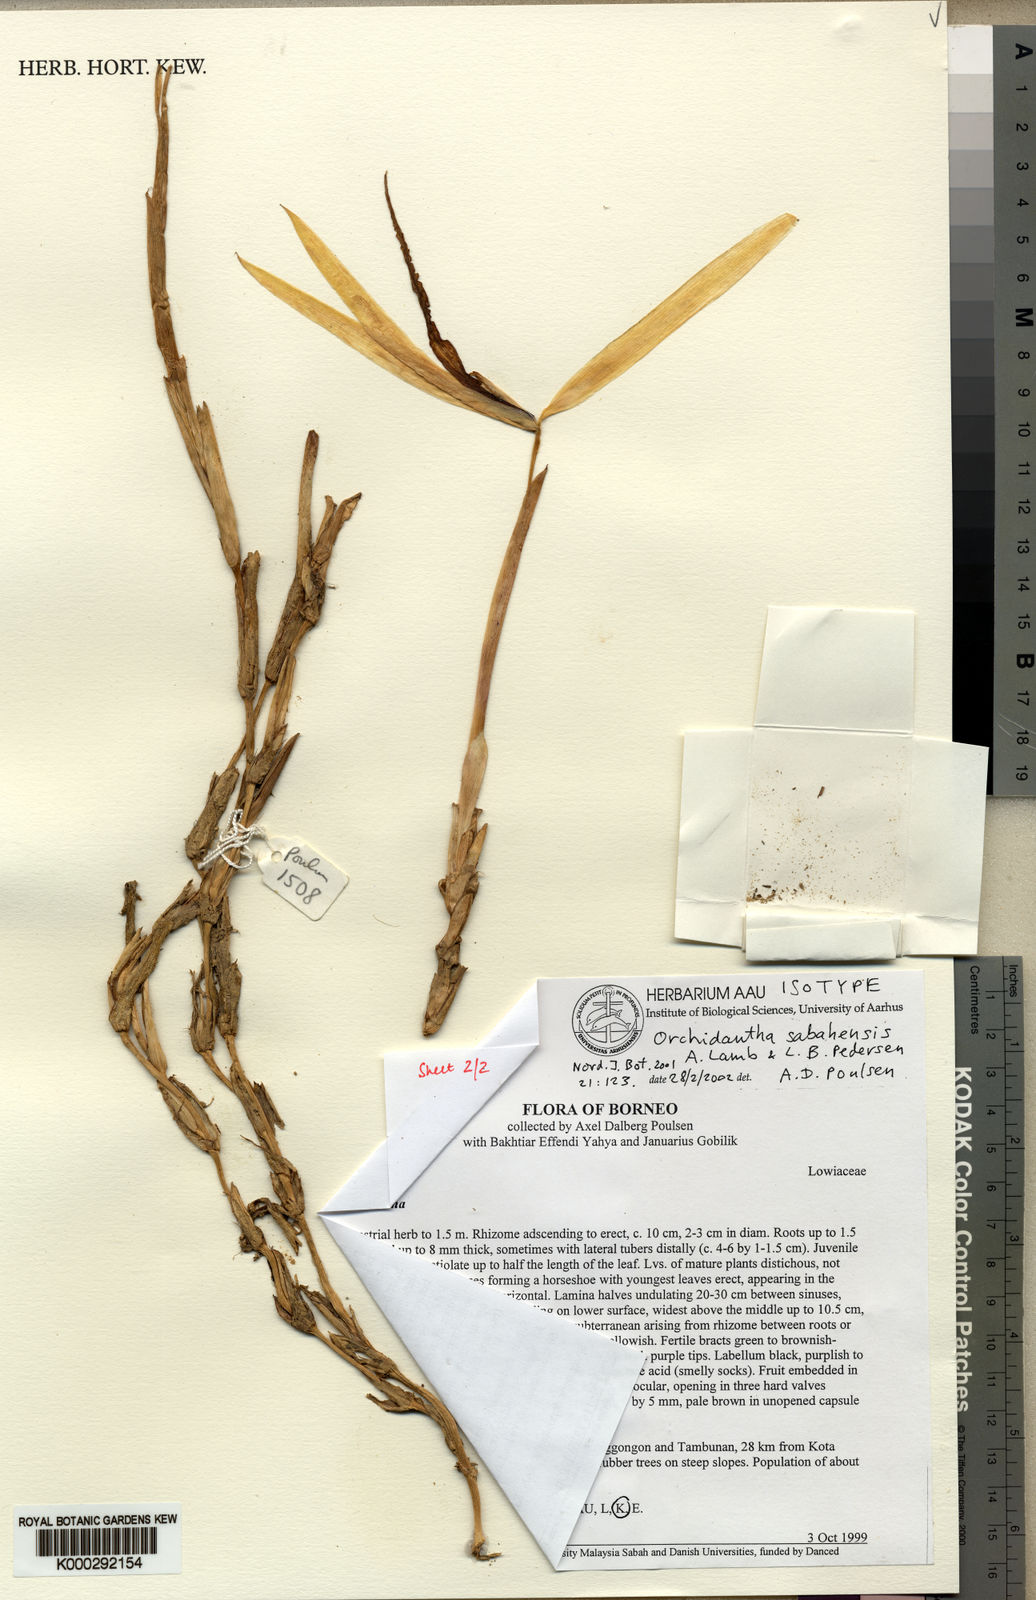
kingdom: Plantae
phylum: Tracheophyta
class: Liliopsida
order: Zingiberales
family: Lowiaceae
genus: Orchidantha
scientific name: Orchidantha sabahensis
